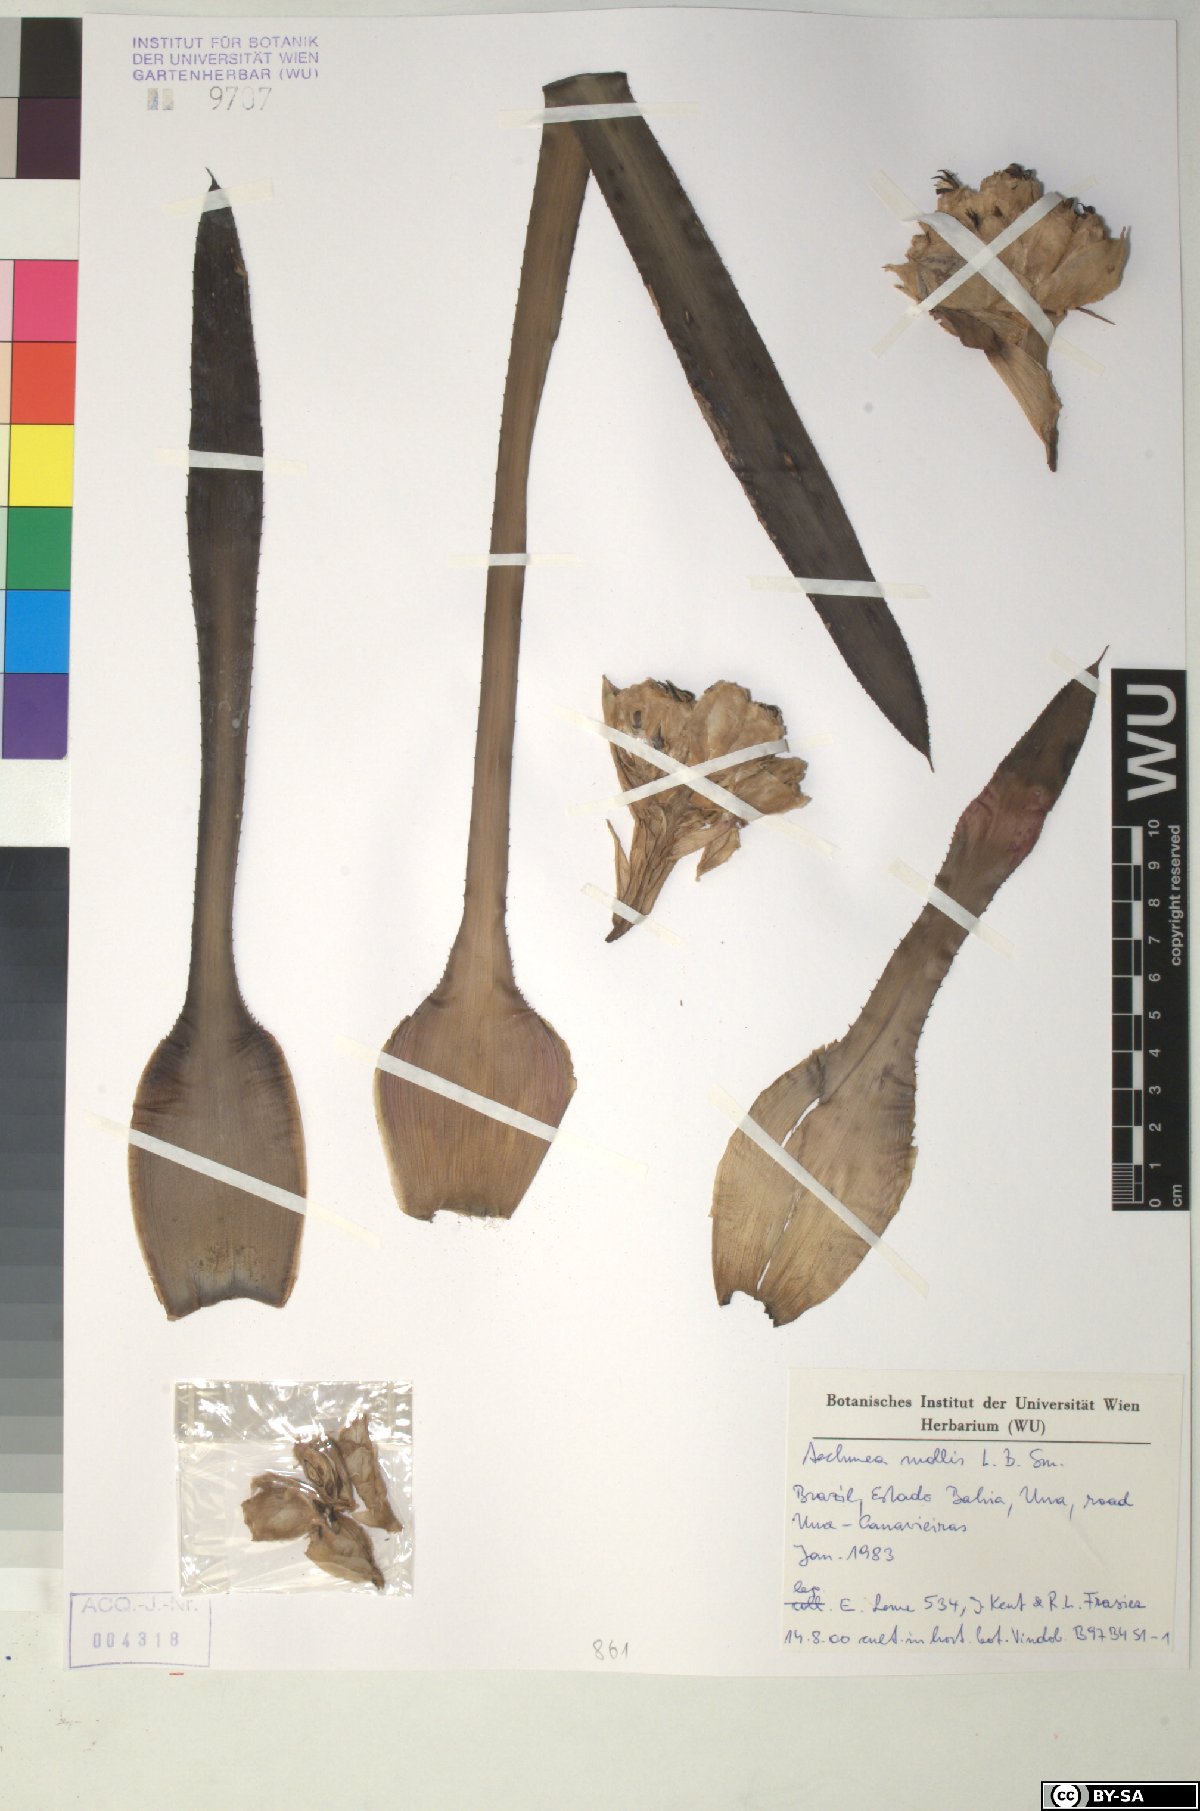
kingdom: Plantae
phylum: Tracheophyta
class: Liliopsida
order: Poales
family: Bromeliaceae
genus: Aechmea
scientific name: Aechmea mollis
